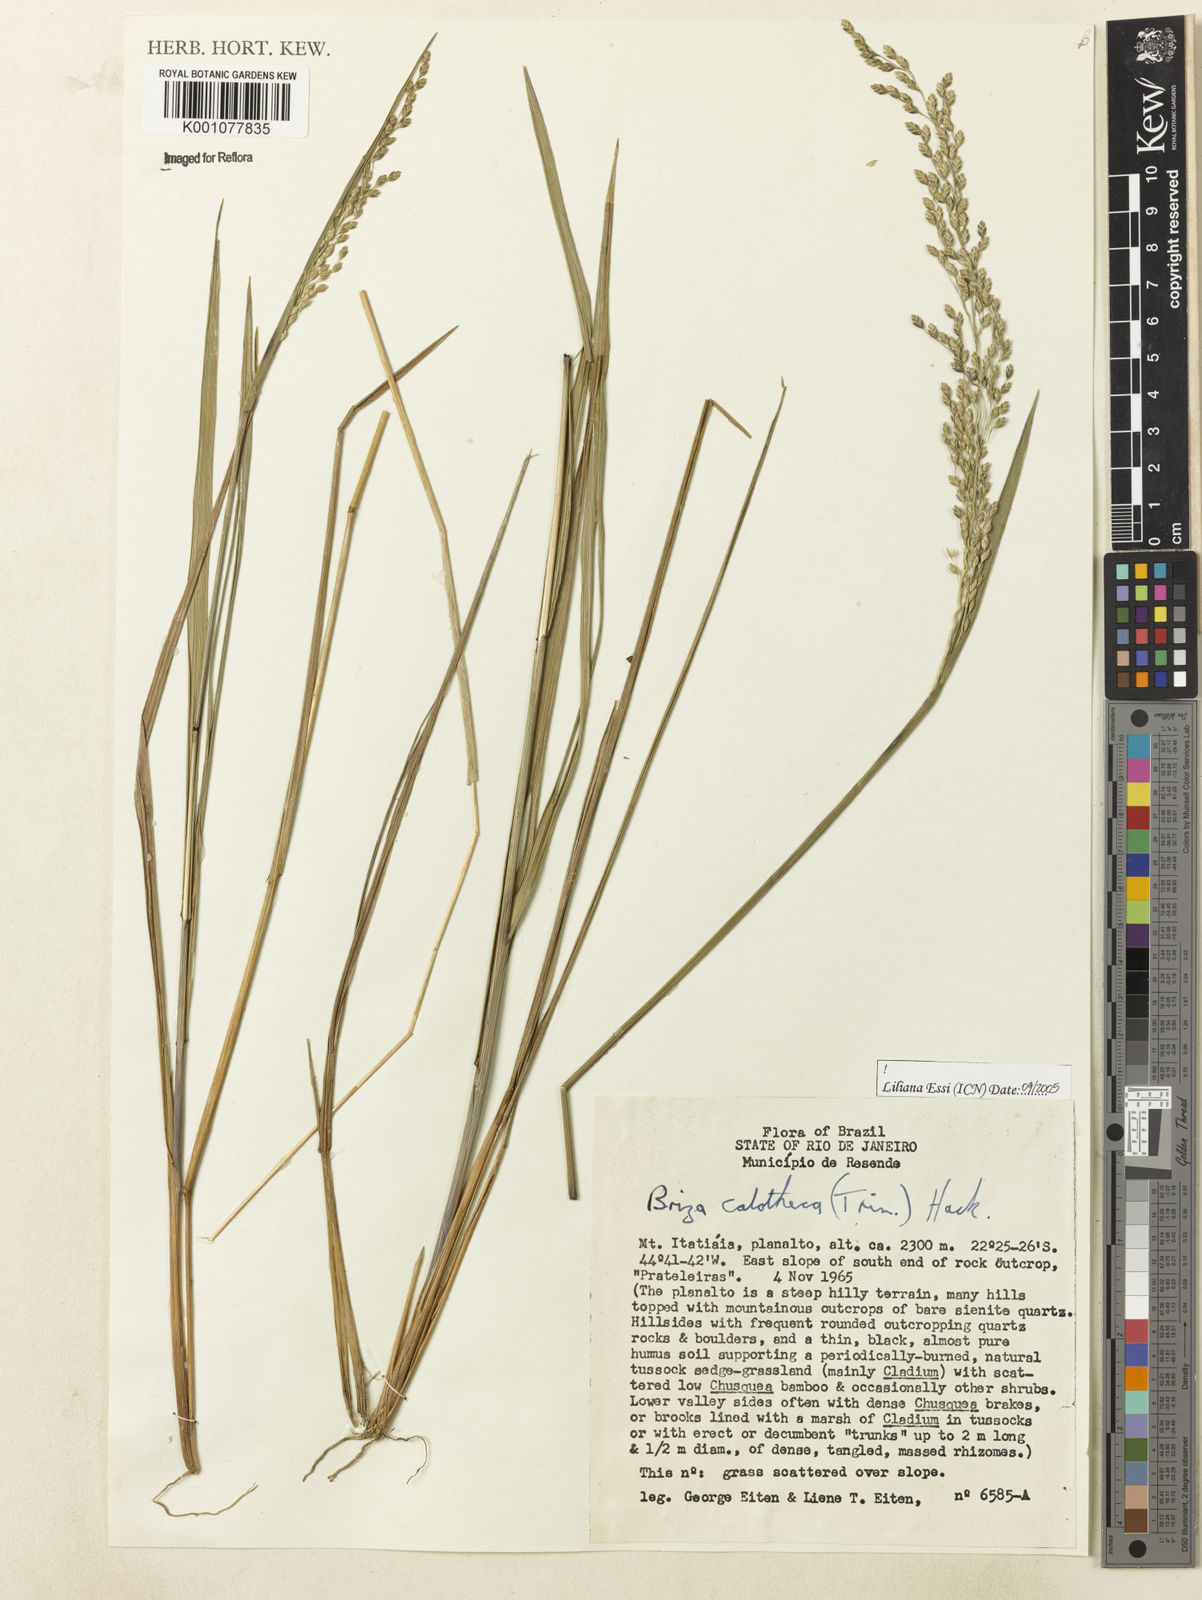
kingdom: Plantae
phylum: Tracheophyta
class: Liliopsida
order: Poales
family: Poaceae
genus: Poidium
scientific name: Poidium calotheca
